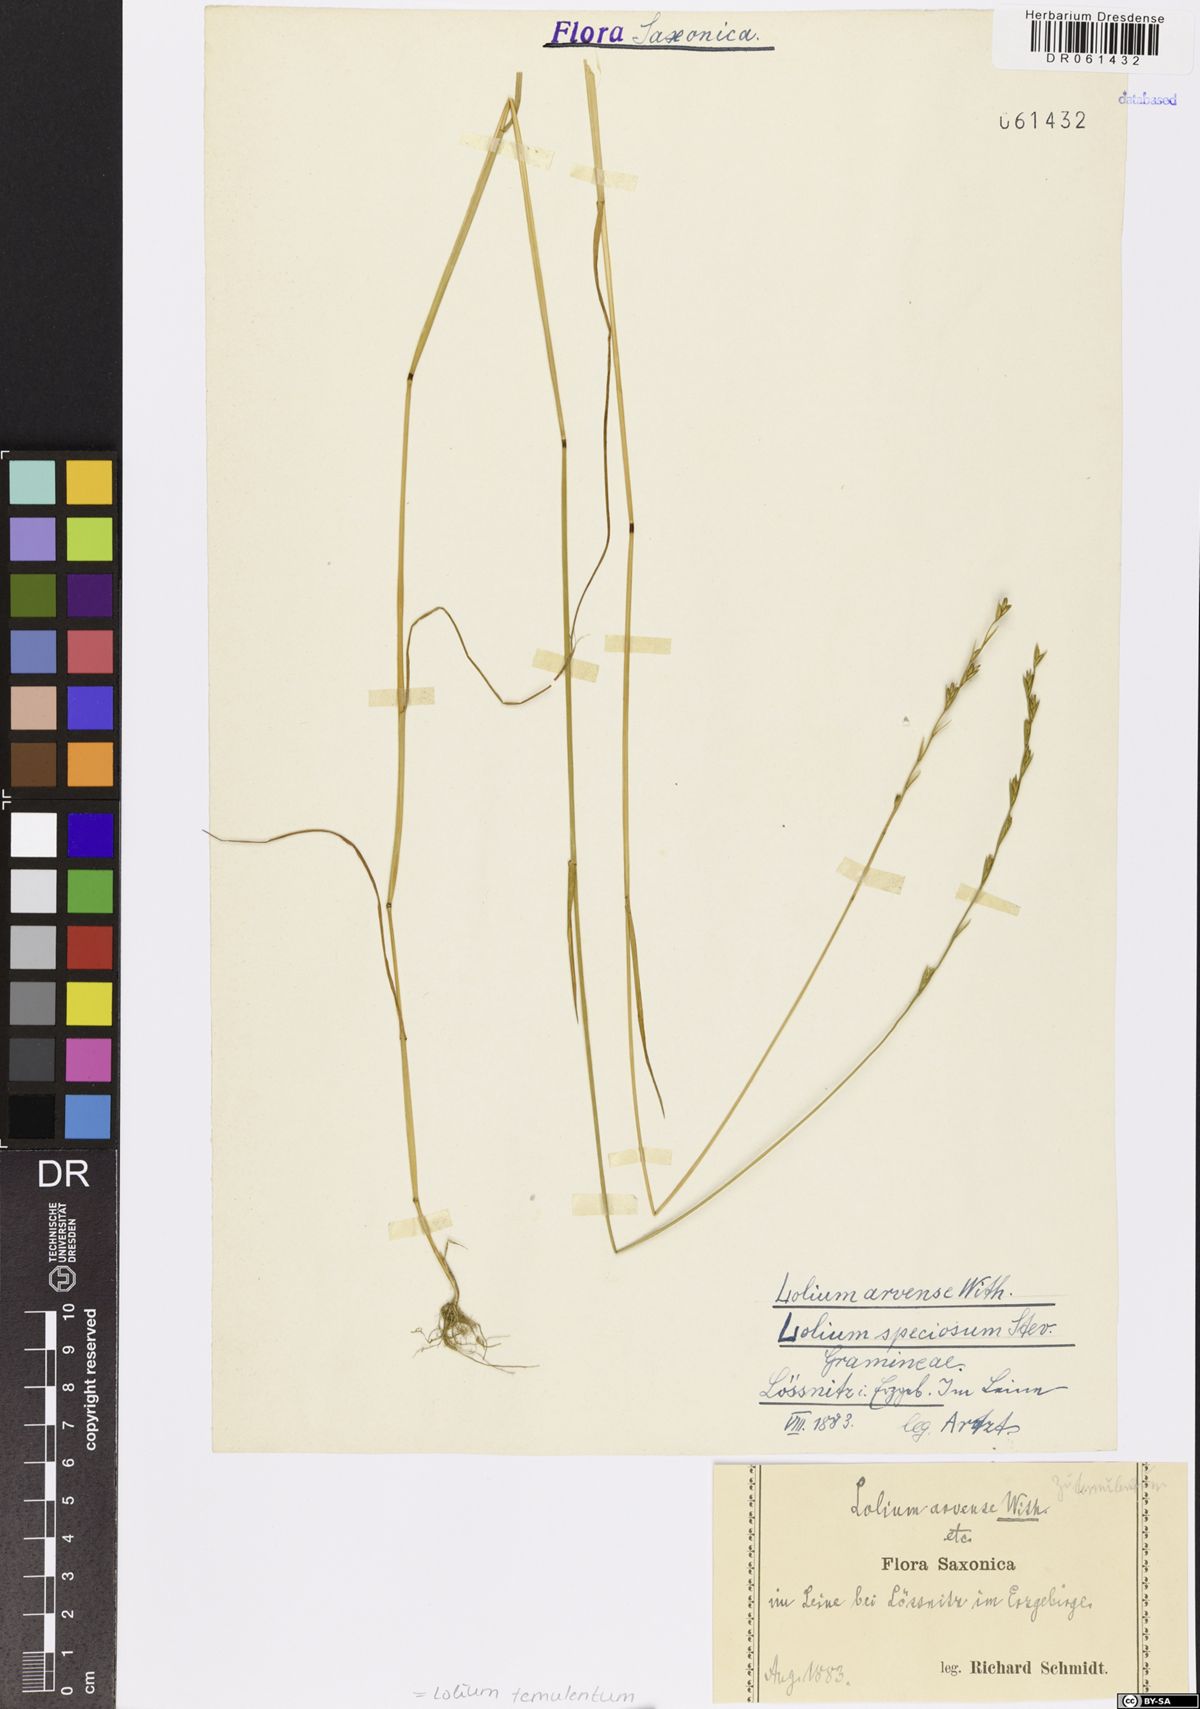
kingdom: Plantae
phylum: Tracheophyta
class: Liliopsida
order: Poales
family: Poaceae
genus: Lolium
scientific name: Lolium temulentum
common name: Darnel
